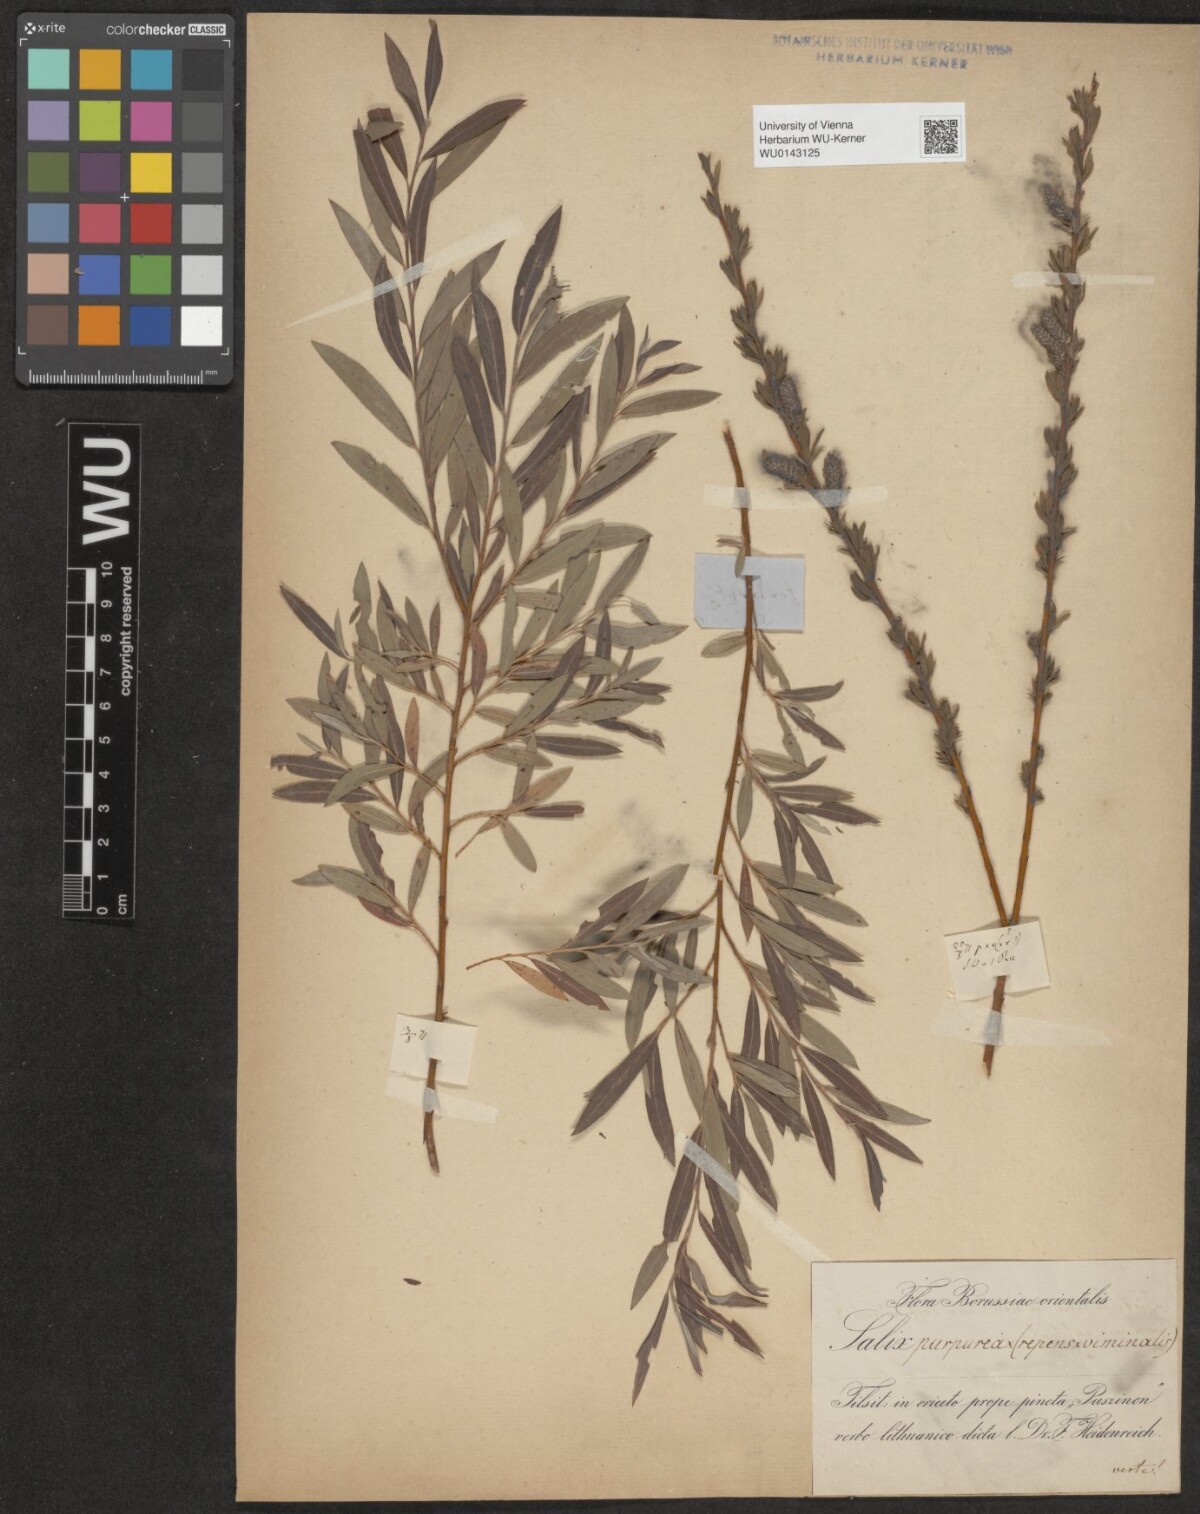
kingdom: Plantae
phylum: Tracheophyta
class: Magnoliopsida
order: Malpighiales
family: Salicaceae
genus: Salix
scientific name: Salix
